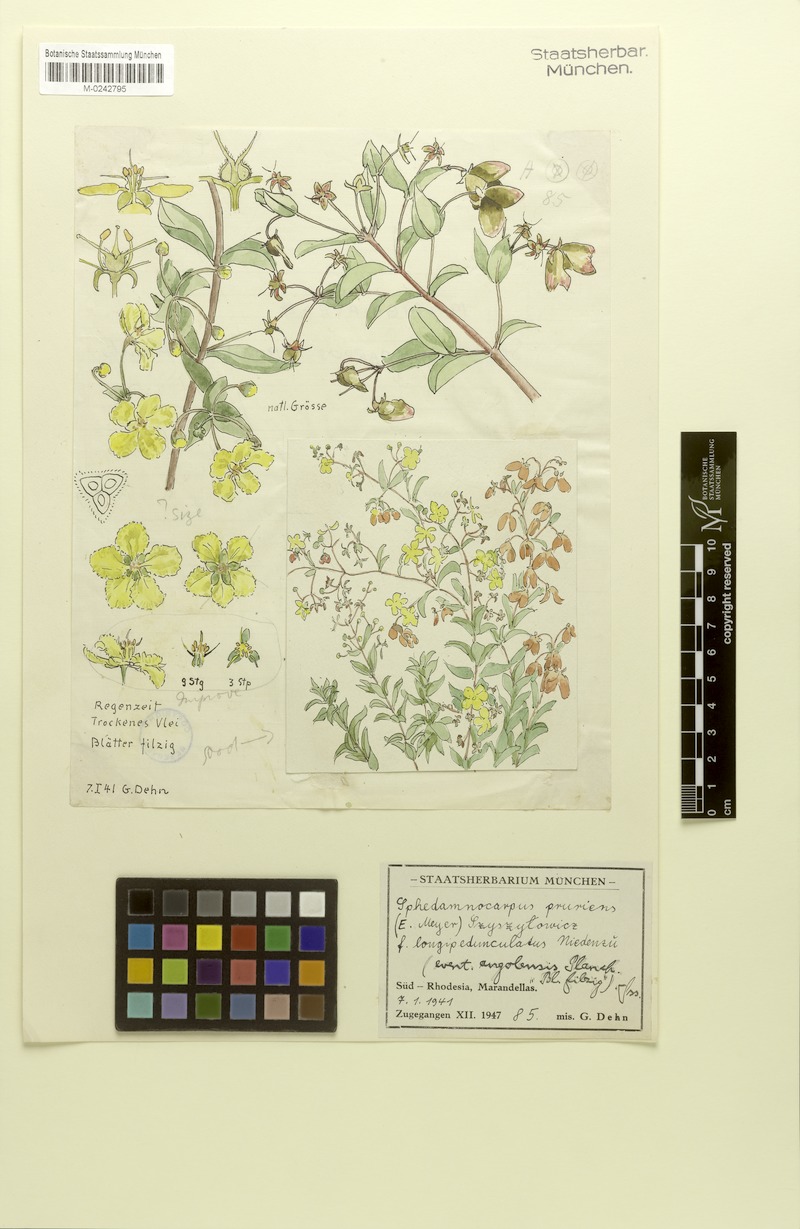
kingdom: Plantae
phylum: Tracheophyta
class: Magnoliopsida
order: Malpighiales
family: Malpighiaceae
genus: Sphedamnocarpus
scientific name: Sphedamnocarpus pruriens
